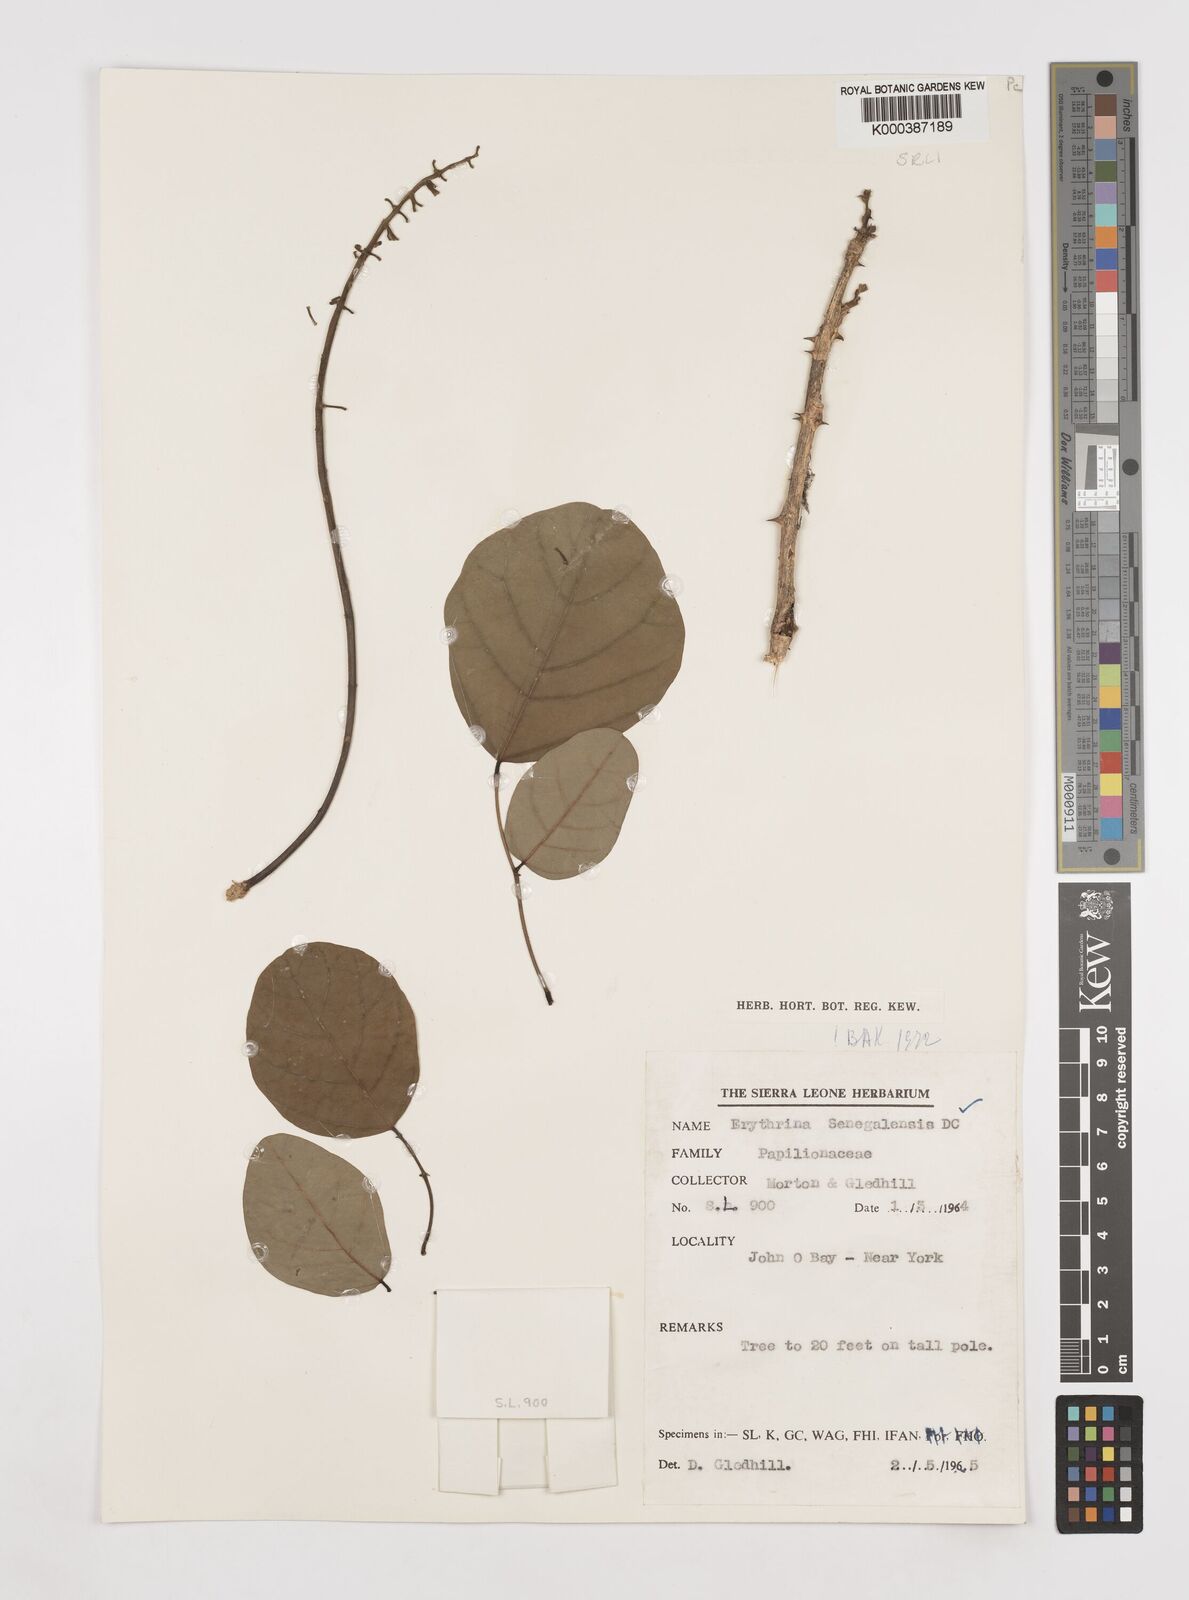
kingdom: Plantae
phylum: Tracheophyta
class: Magnoliopsida
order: Fabales
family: Fabaceae
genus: Erythrina
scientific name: Erythrina senegalensis
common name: Senegal coraltree
